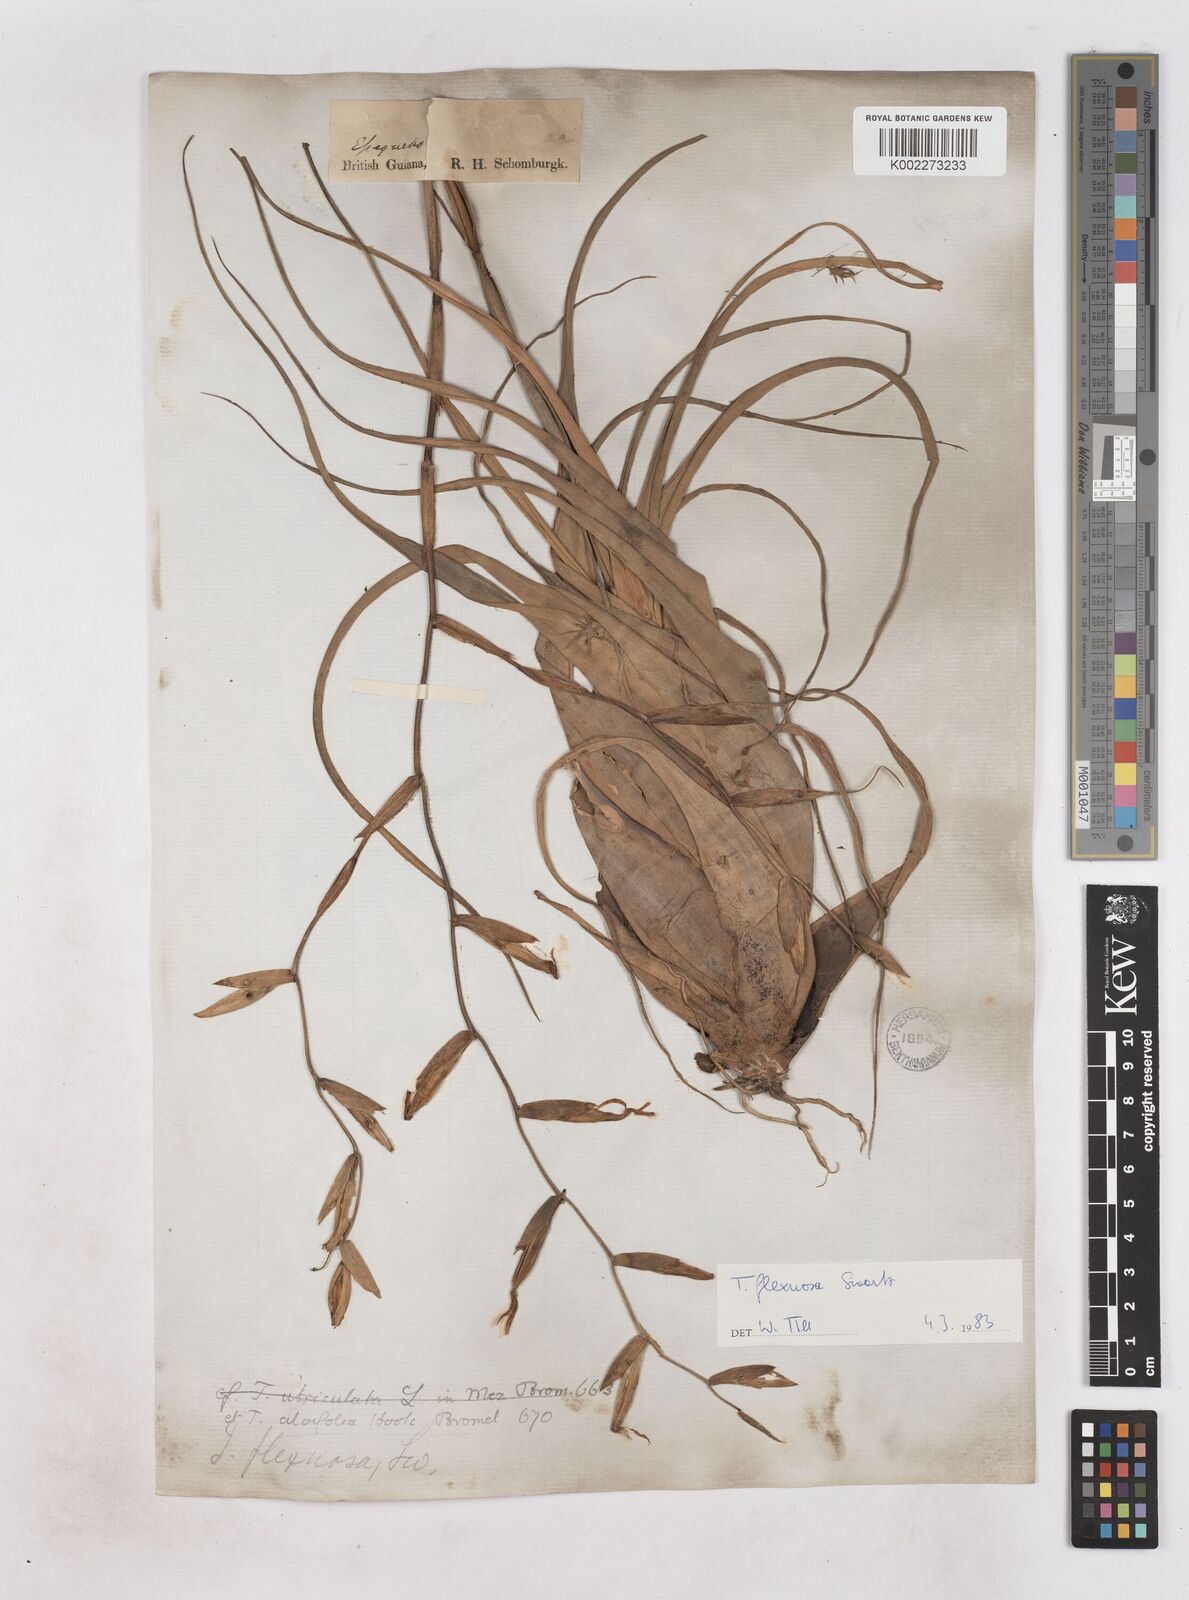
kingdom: Plantae
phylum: Tracheophyta
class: Liliopsida
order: Poales
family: Bromeliaceae
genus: Tillandsia
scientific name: Tillandsia flexuosa
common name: Banded airplant
